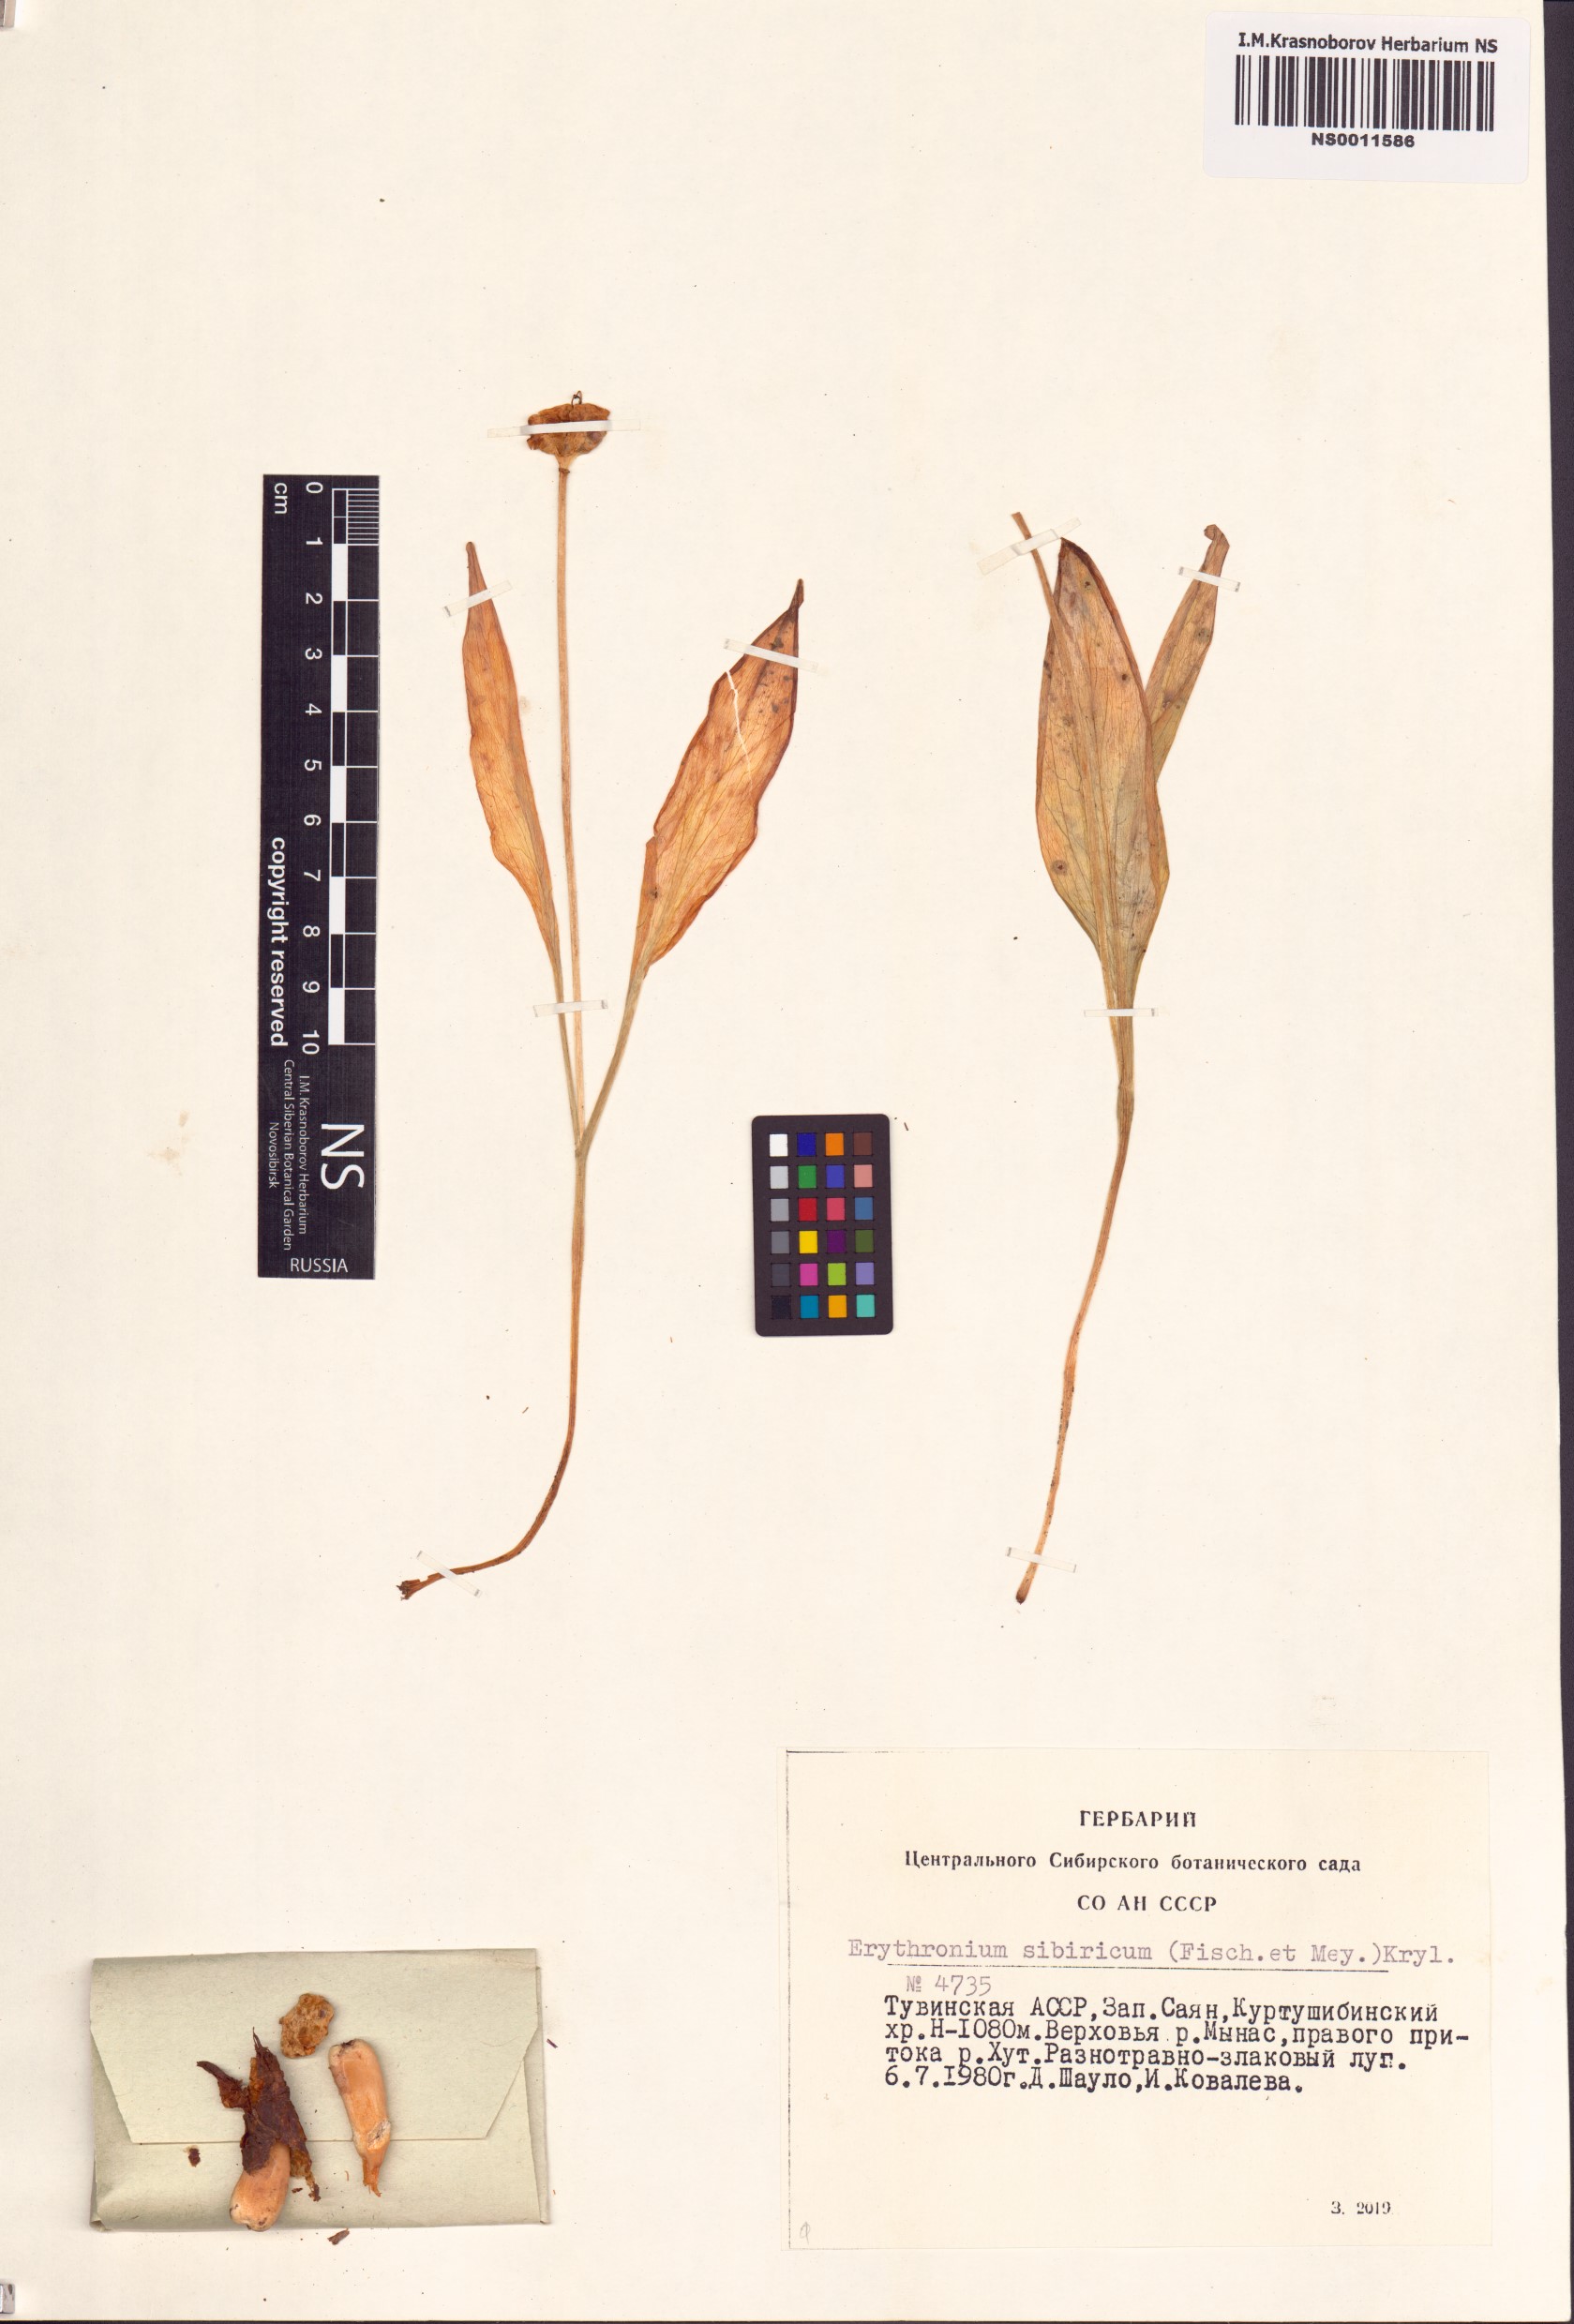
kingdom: Plantae
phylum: Tracheophyta
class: Liliopsida
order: Liliales
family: Liliaceae
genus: Erythronium
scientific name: Erythronium sibiricum
